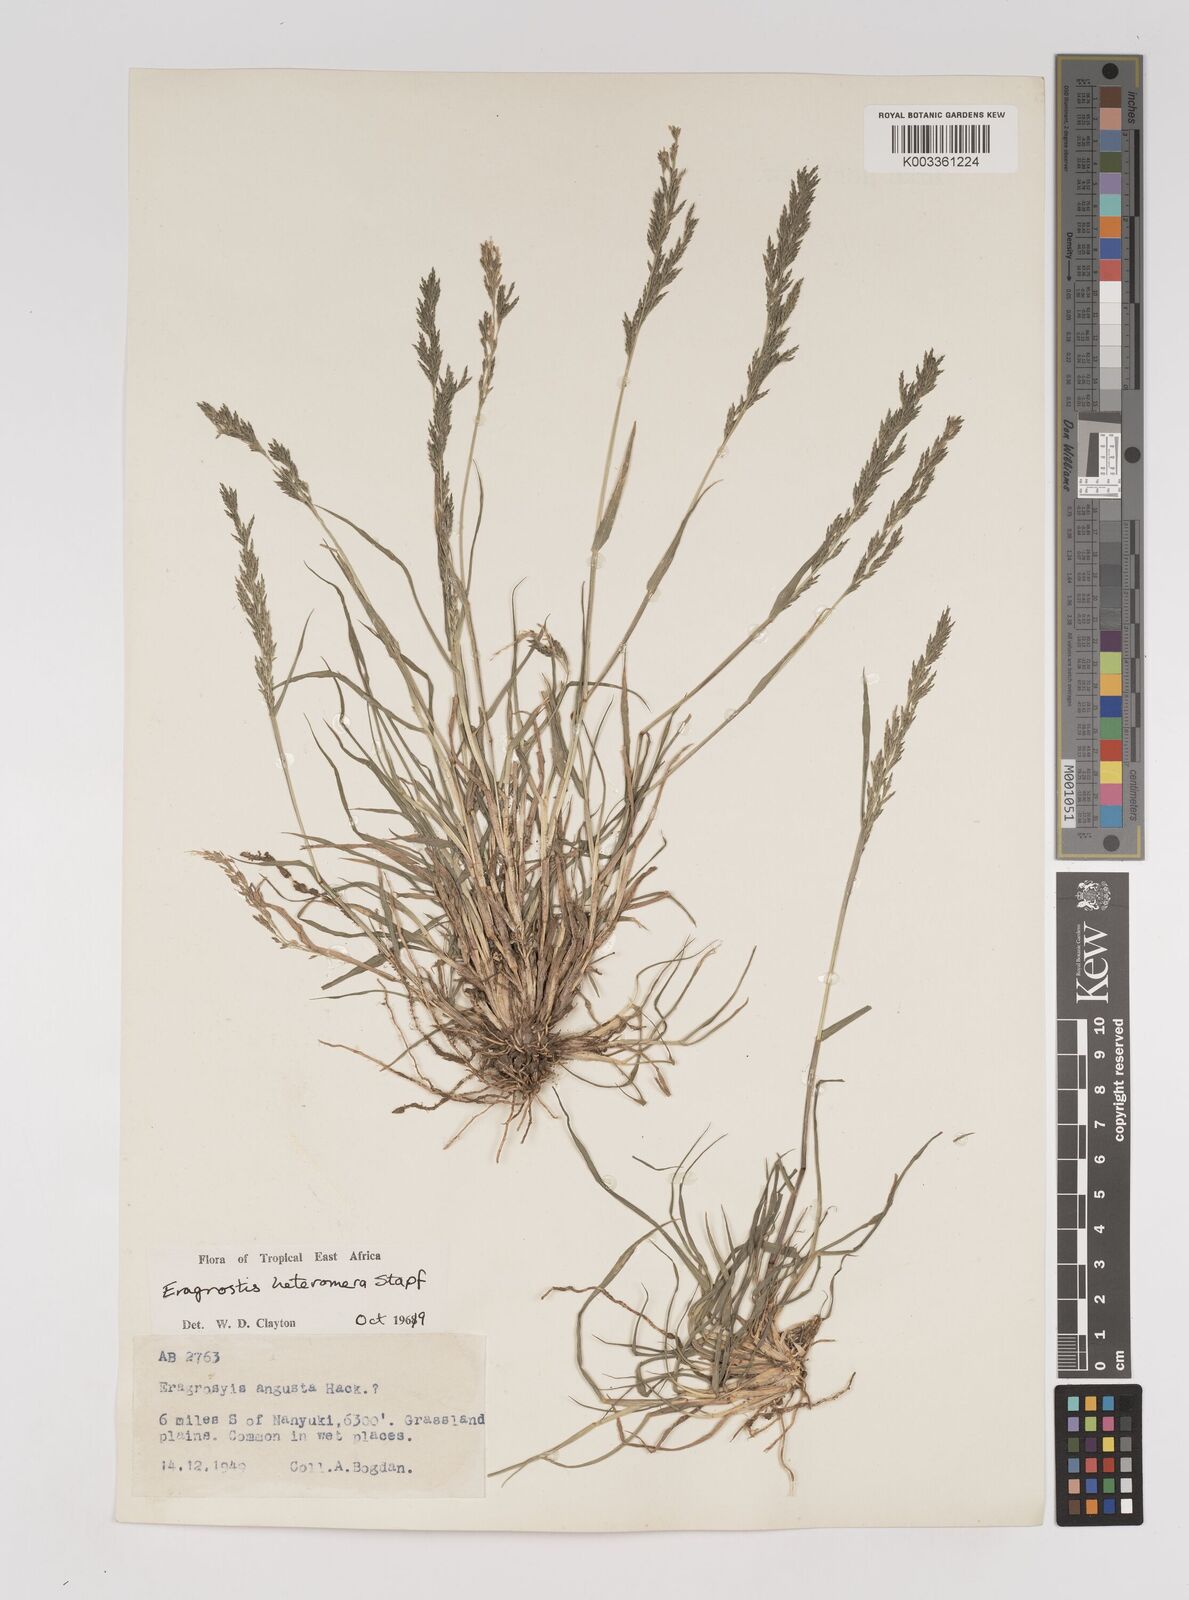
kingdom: Plantae
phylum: Tracheophyta
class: Liliopsida
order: Poales
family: Poaceae
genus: Eragrostis
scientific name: Eragrostis heteromera
